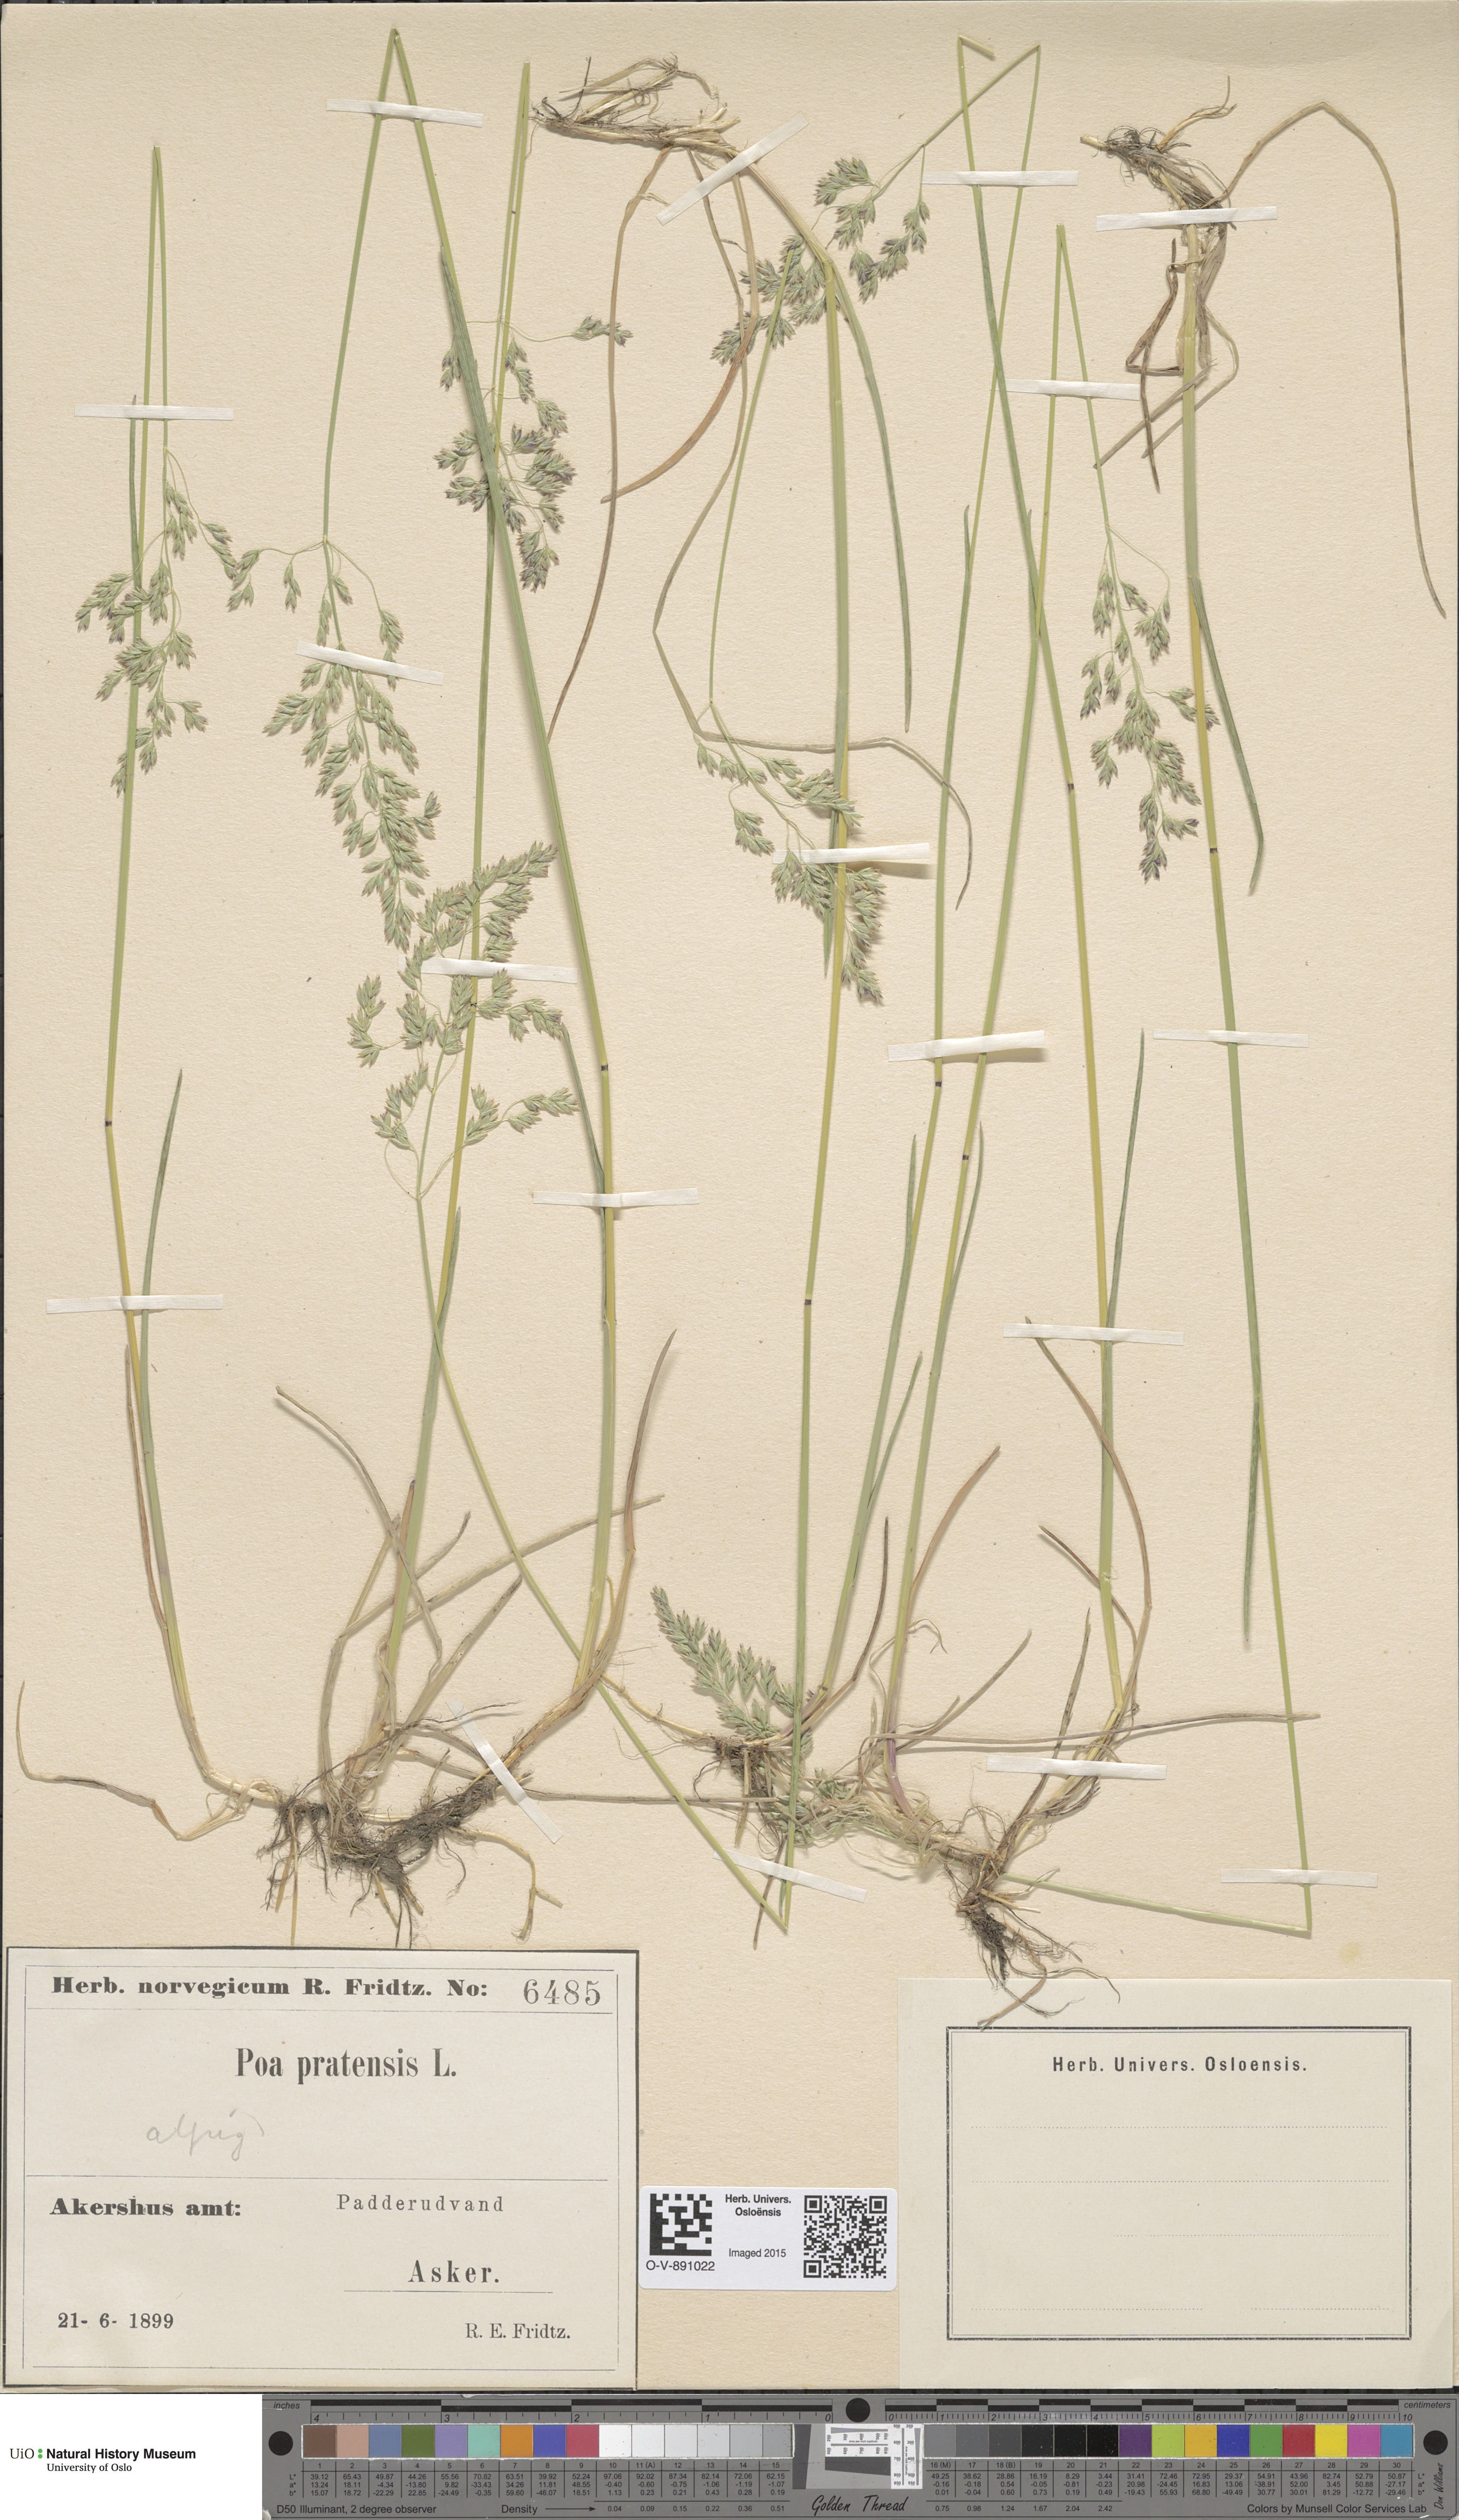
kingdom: Plantae
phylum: Tracheophyta
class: Liliopsida
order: Poales
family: Poaceae
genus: Poa
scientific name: Poa alpigena
